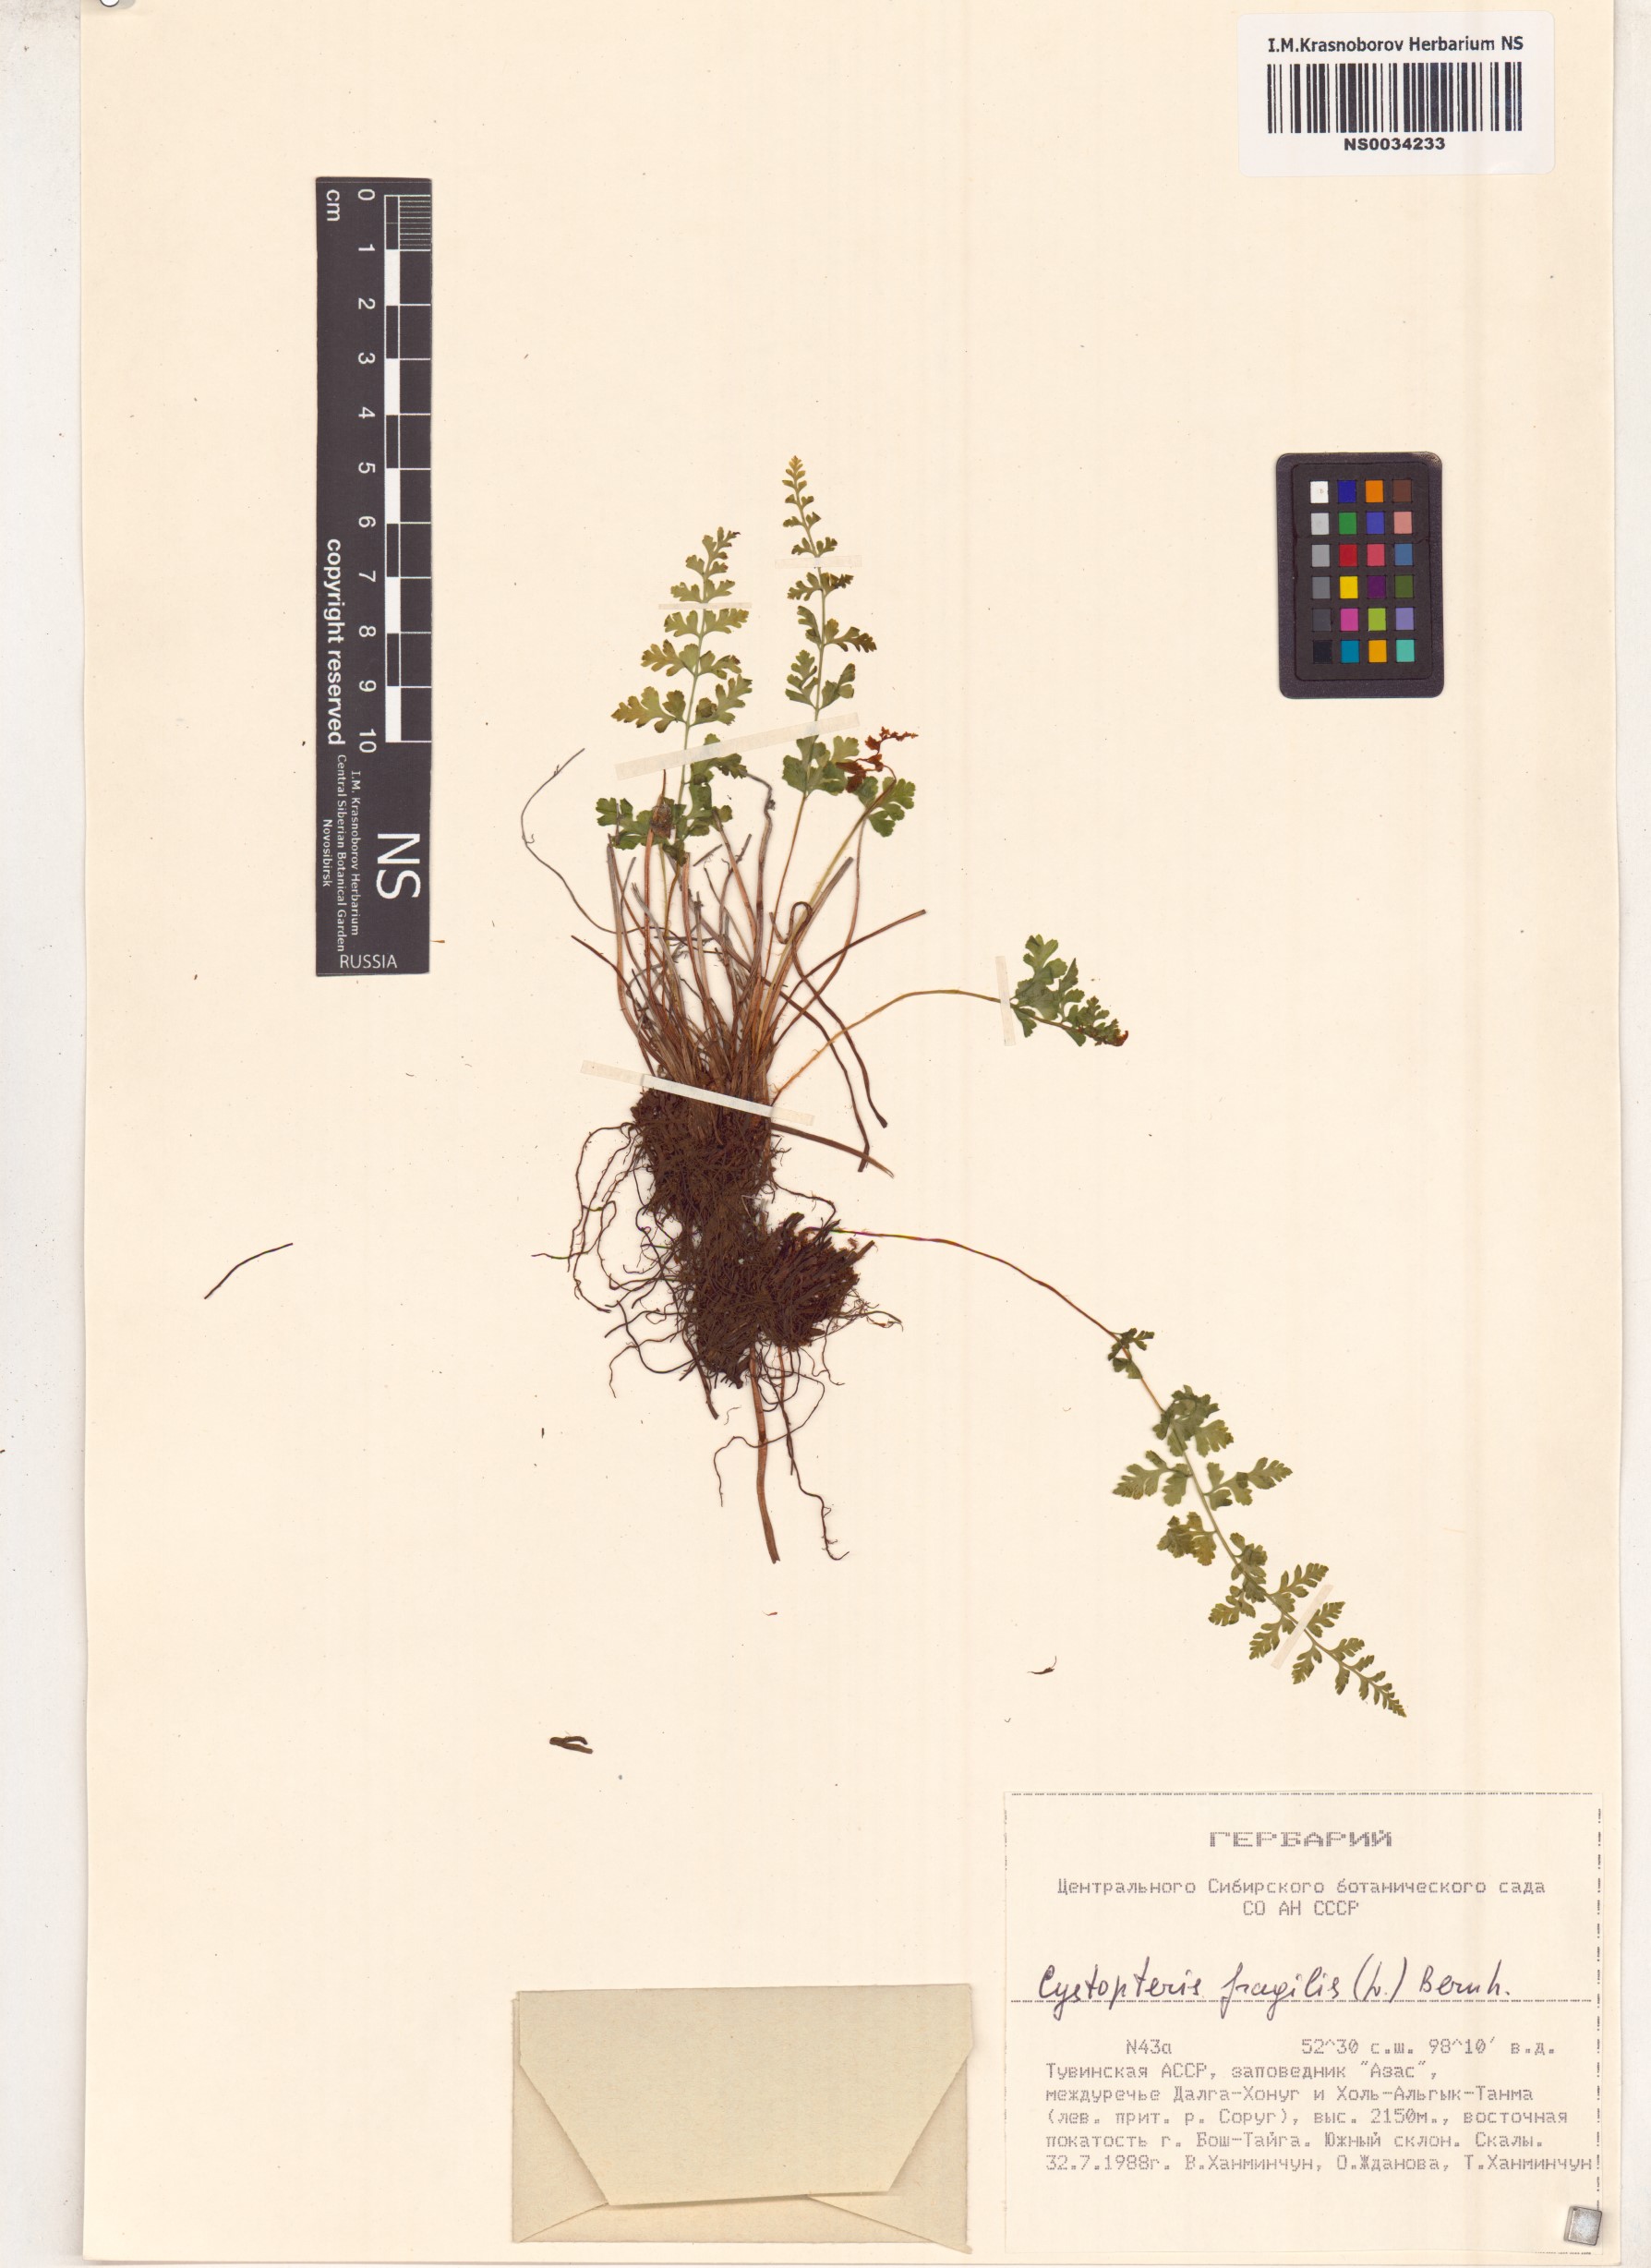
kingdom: Plantae
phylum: Tracheophyta
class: Polypodiopsida
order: Polypodiales
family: Cystopteridaceae
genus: Cystopteris
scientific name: Cystopteris fragilis
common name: Brittle bladder fern
